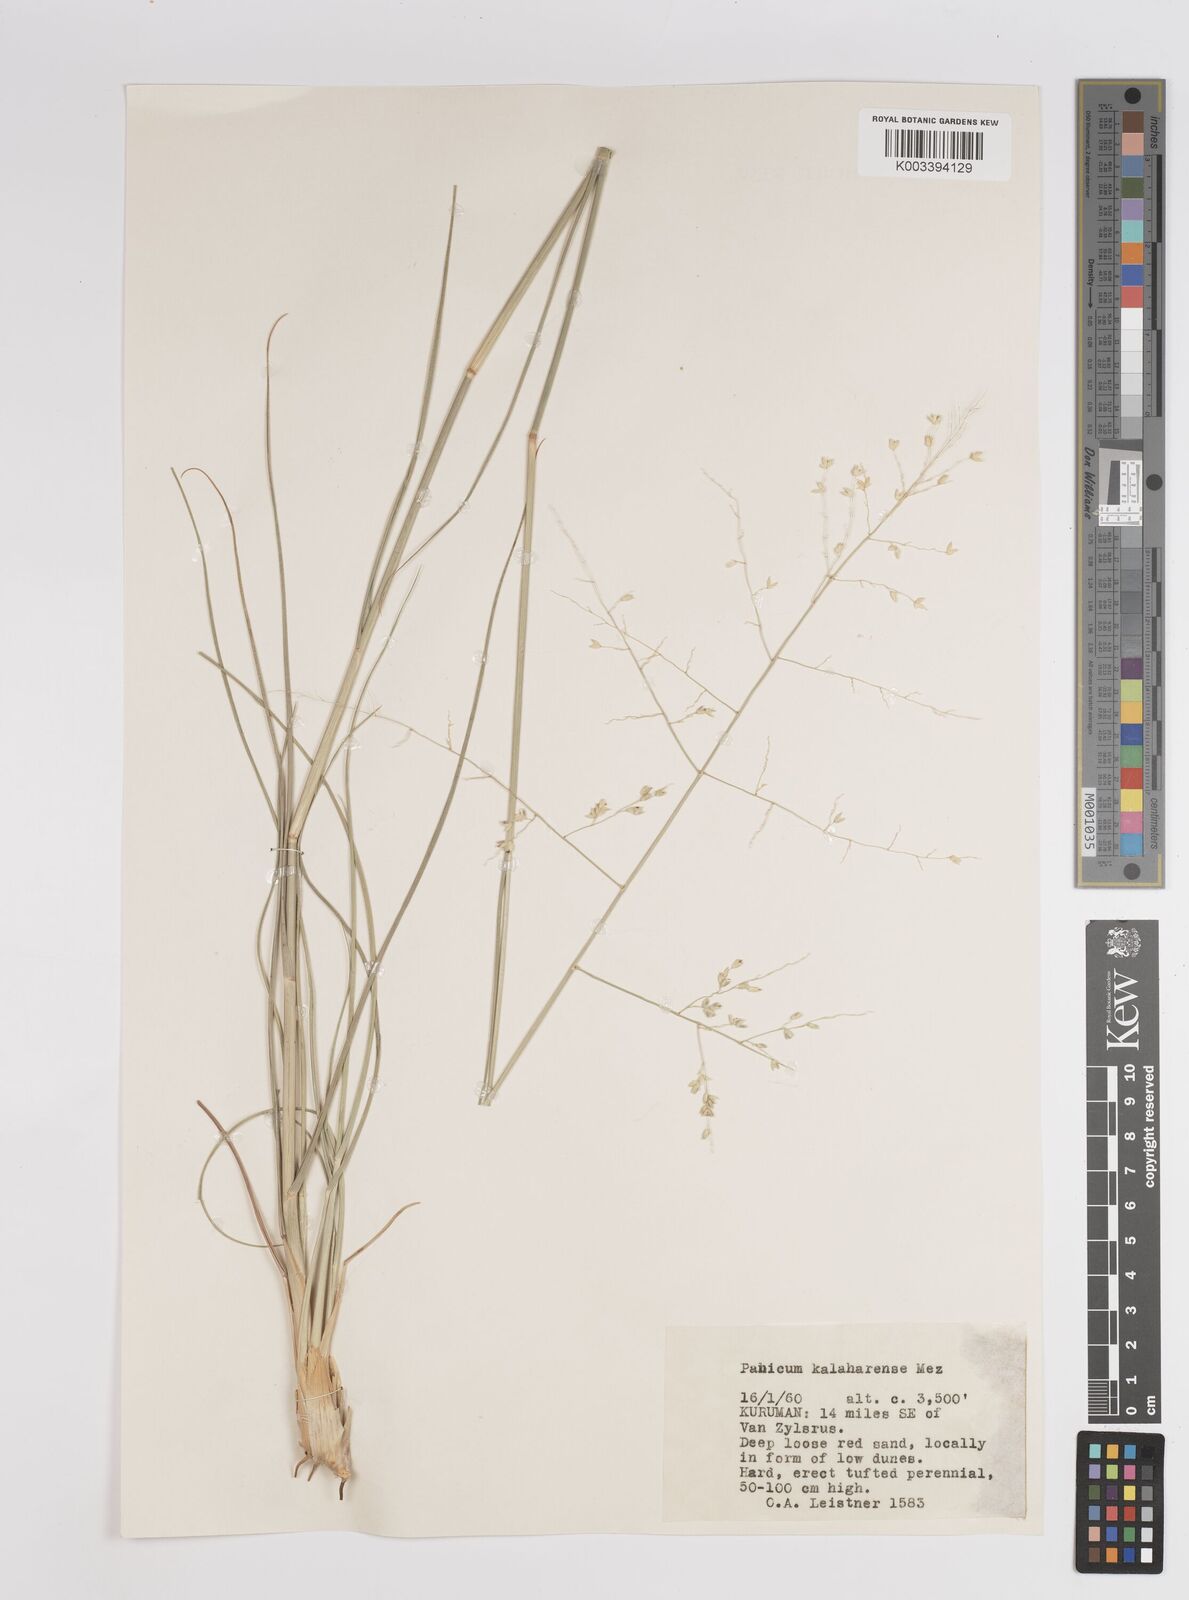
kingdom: Plantae
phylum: Tracheophyta
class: Liliopsida
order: Poales
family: Poaceae
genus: Panicum
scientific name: Panicum kalaharense
